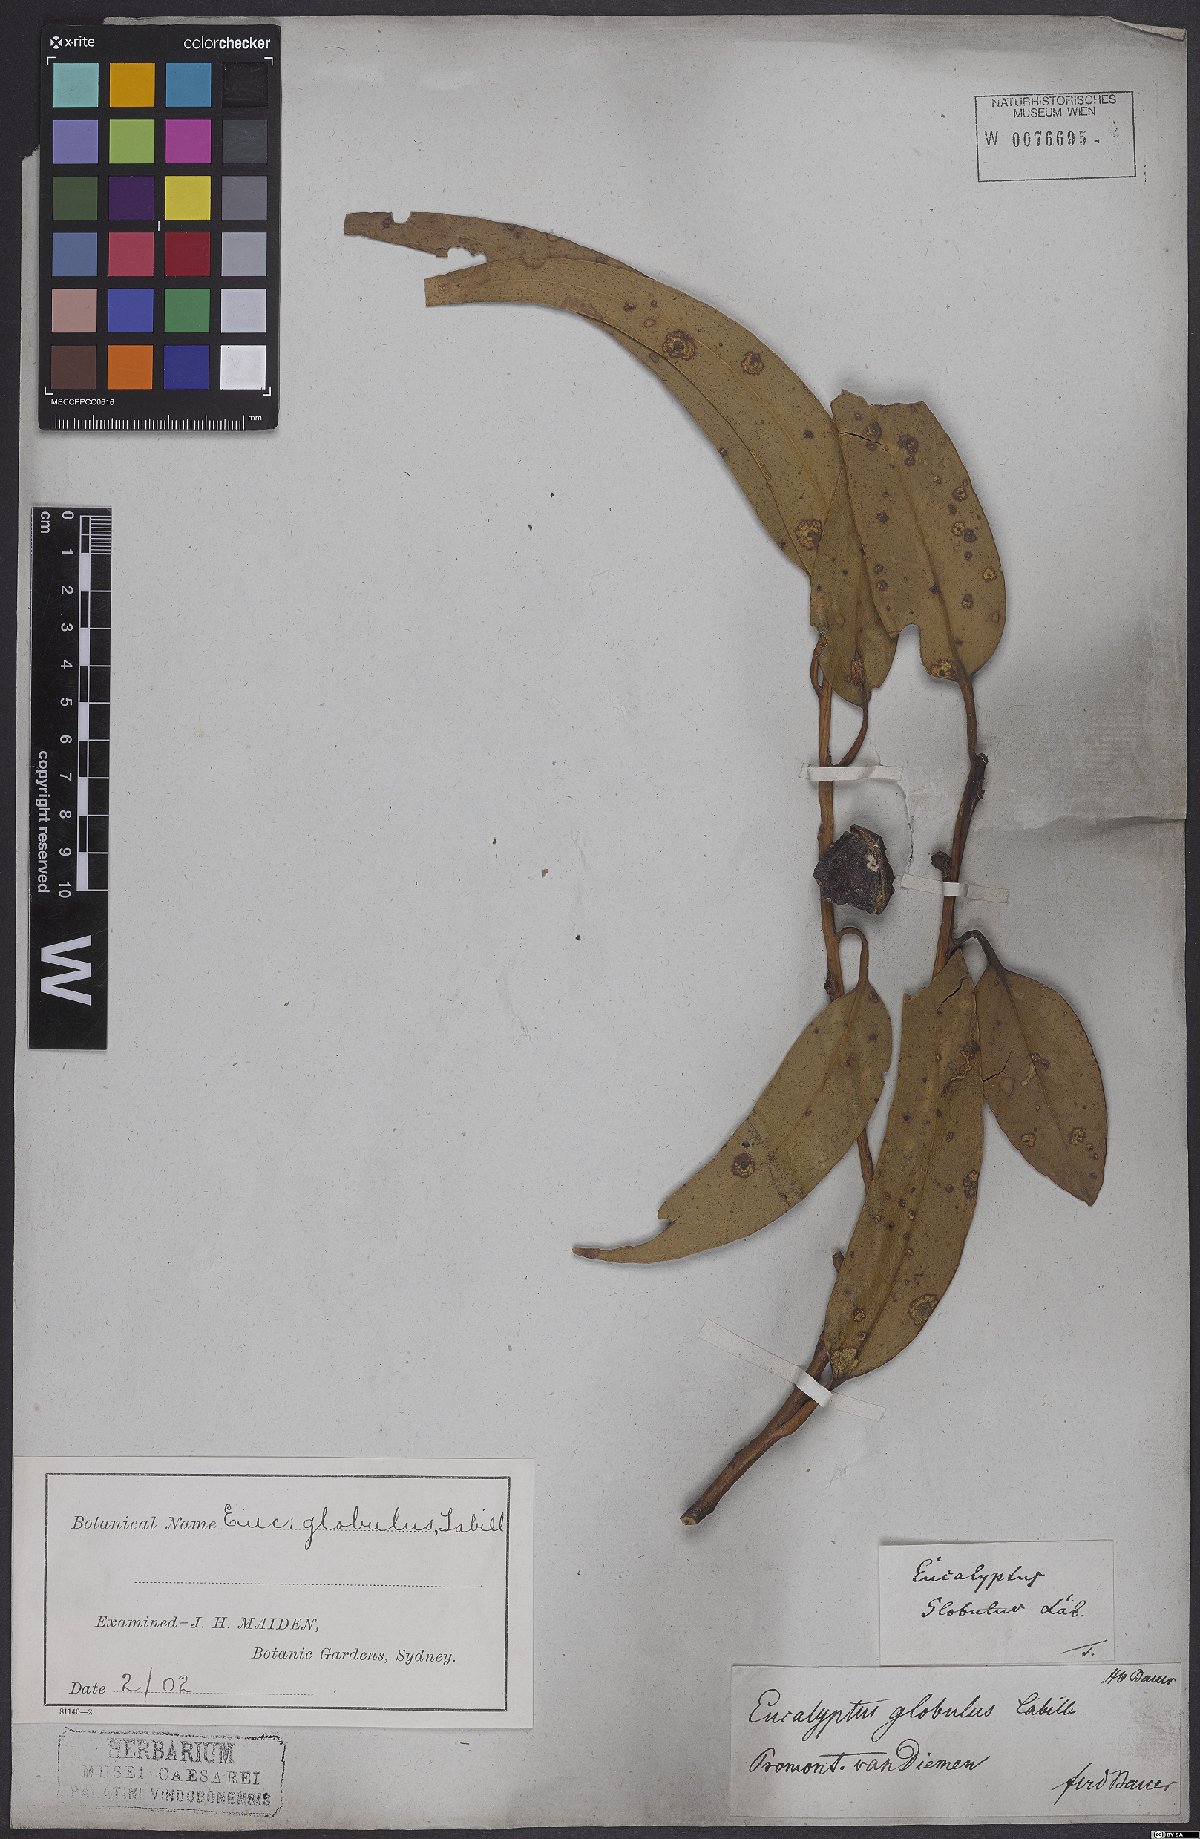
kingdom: Plantae
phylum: Tracheophyta
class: Magnoliopsida
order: Myrtales
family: Myrtaceae
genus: Eucalyptus
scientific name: Eucalyptus globulus
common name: Southern blue-gum
